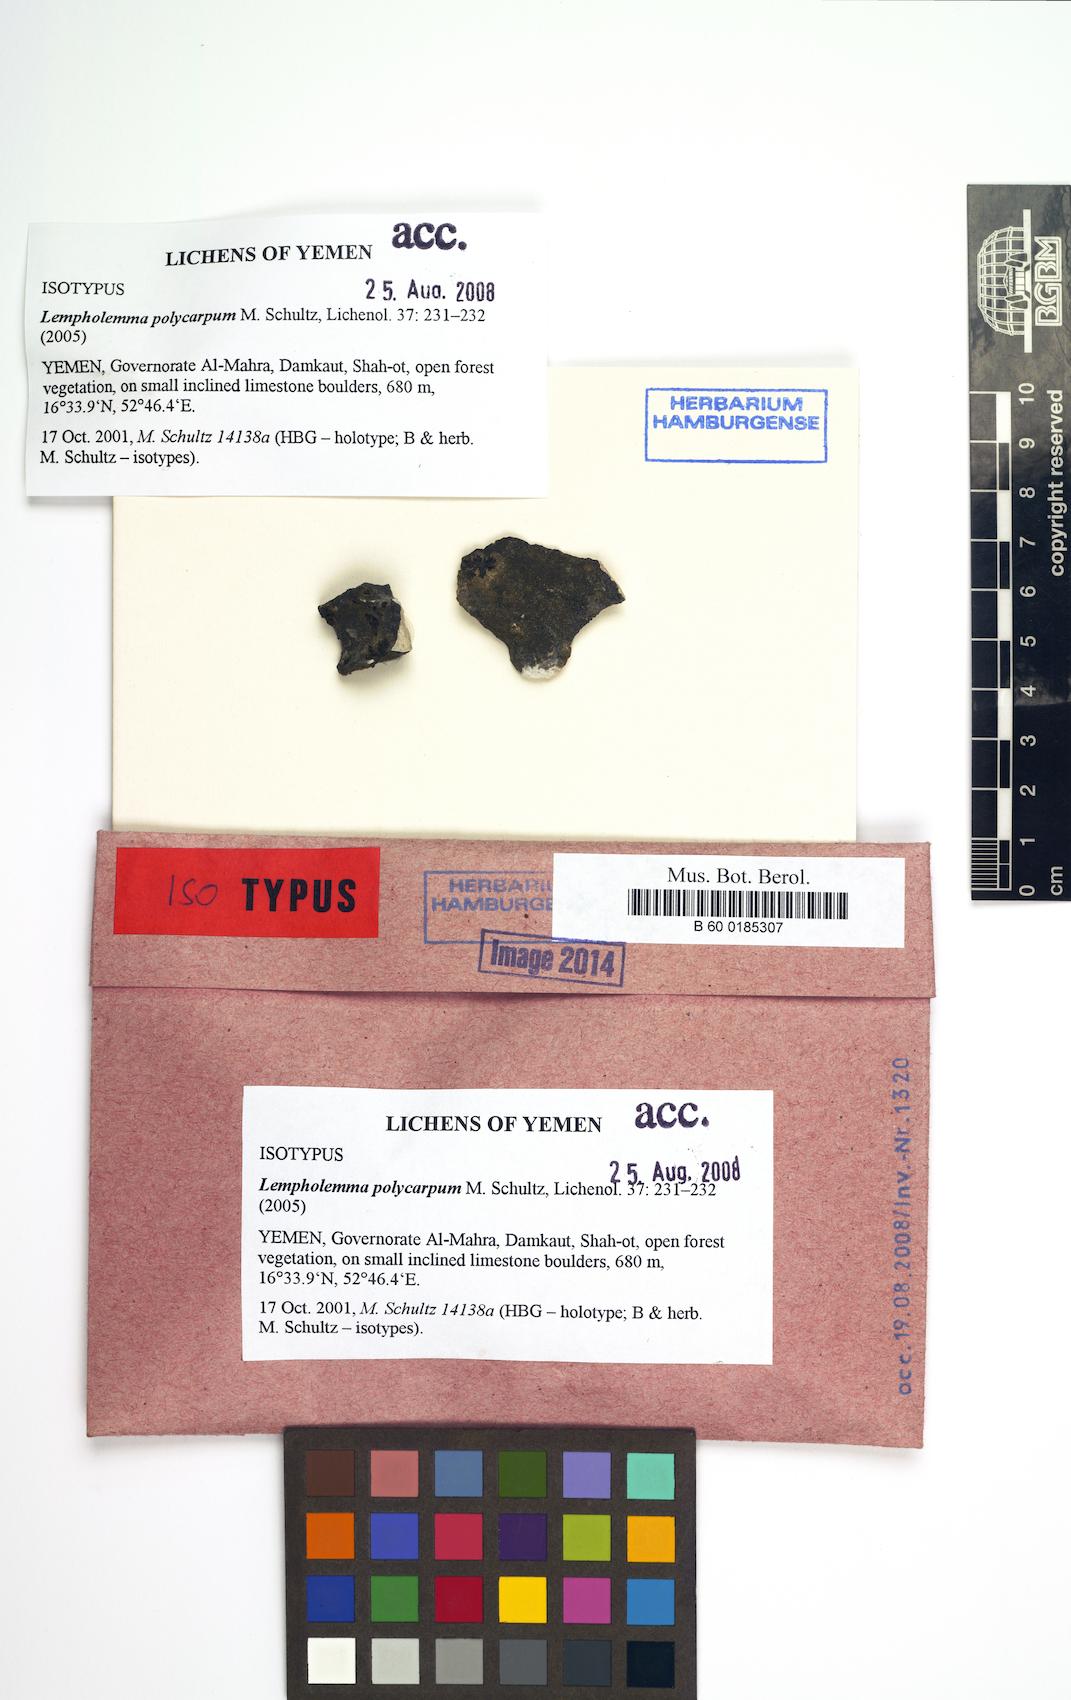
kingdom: Fungi
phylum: Ascomycota
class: Lichinomycetes
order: Lichinales
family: Lichinaceae
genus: Lempholemma
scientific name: Lempholemma polycarpum
